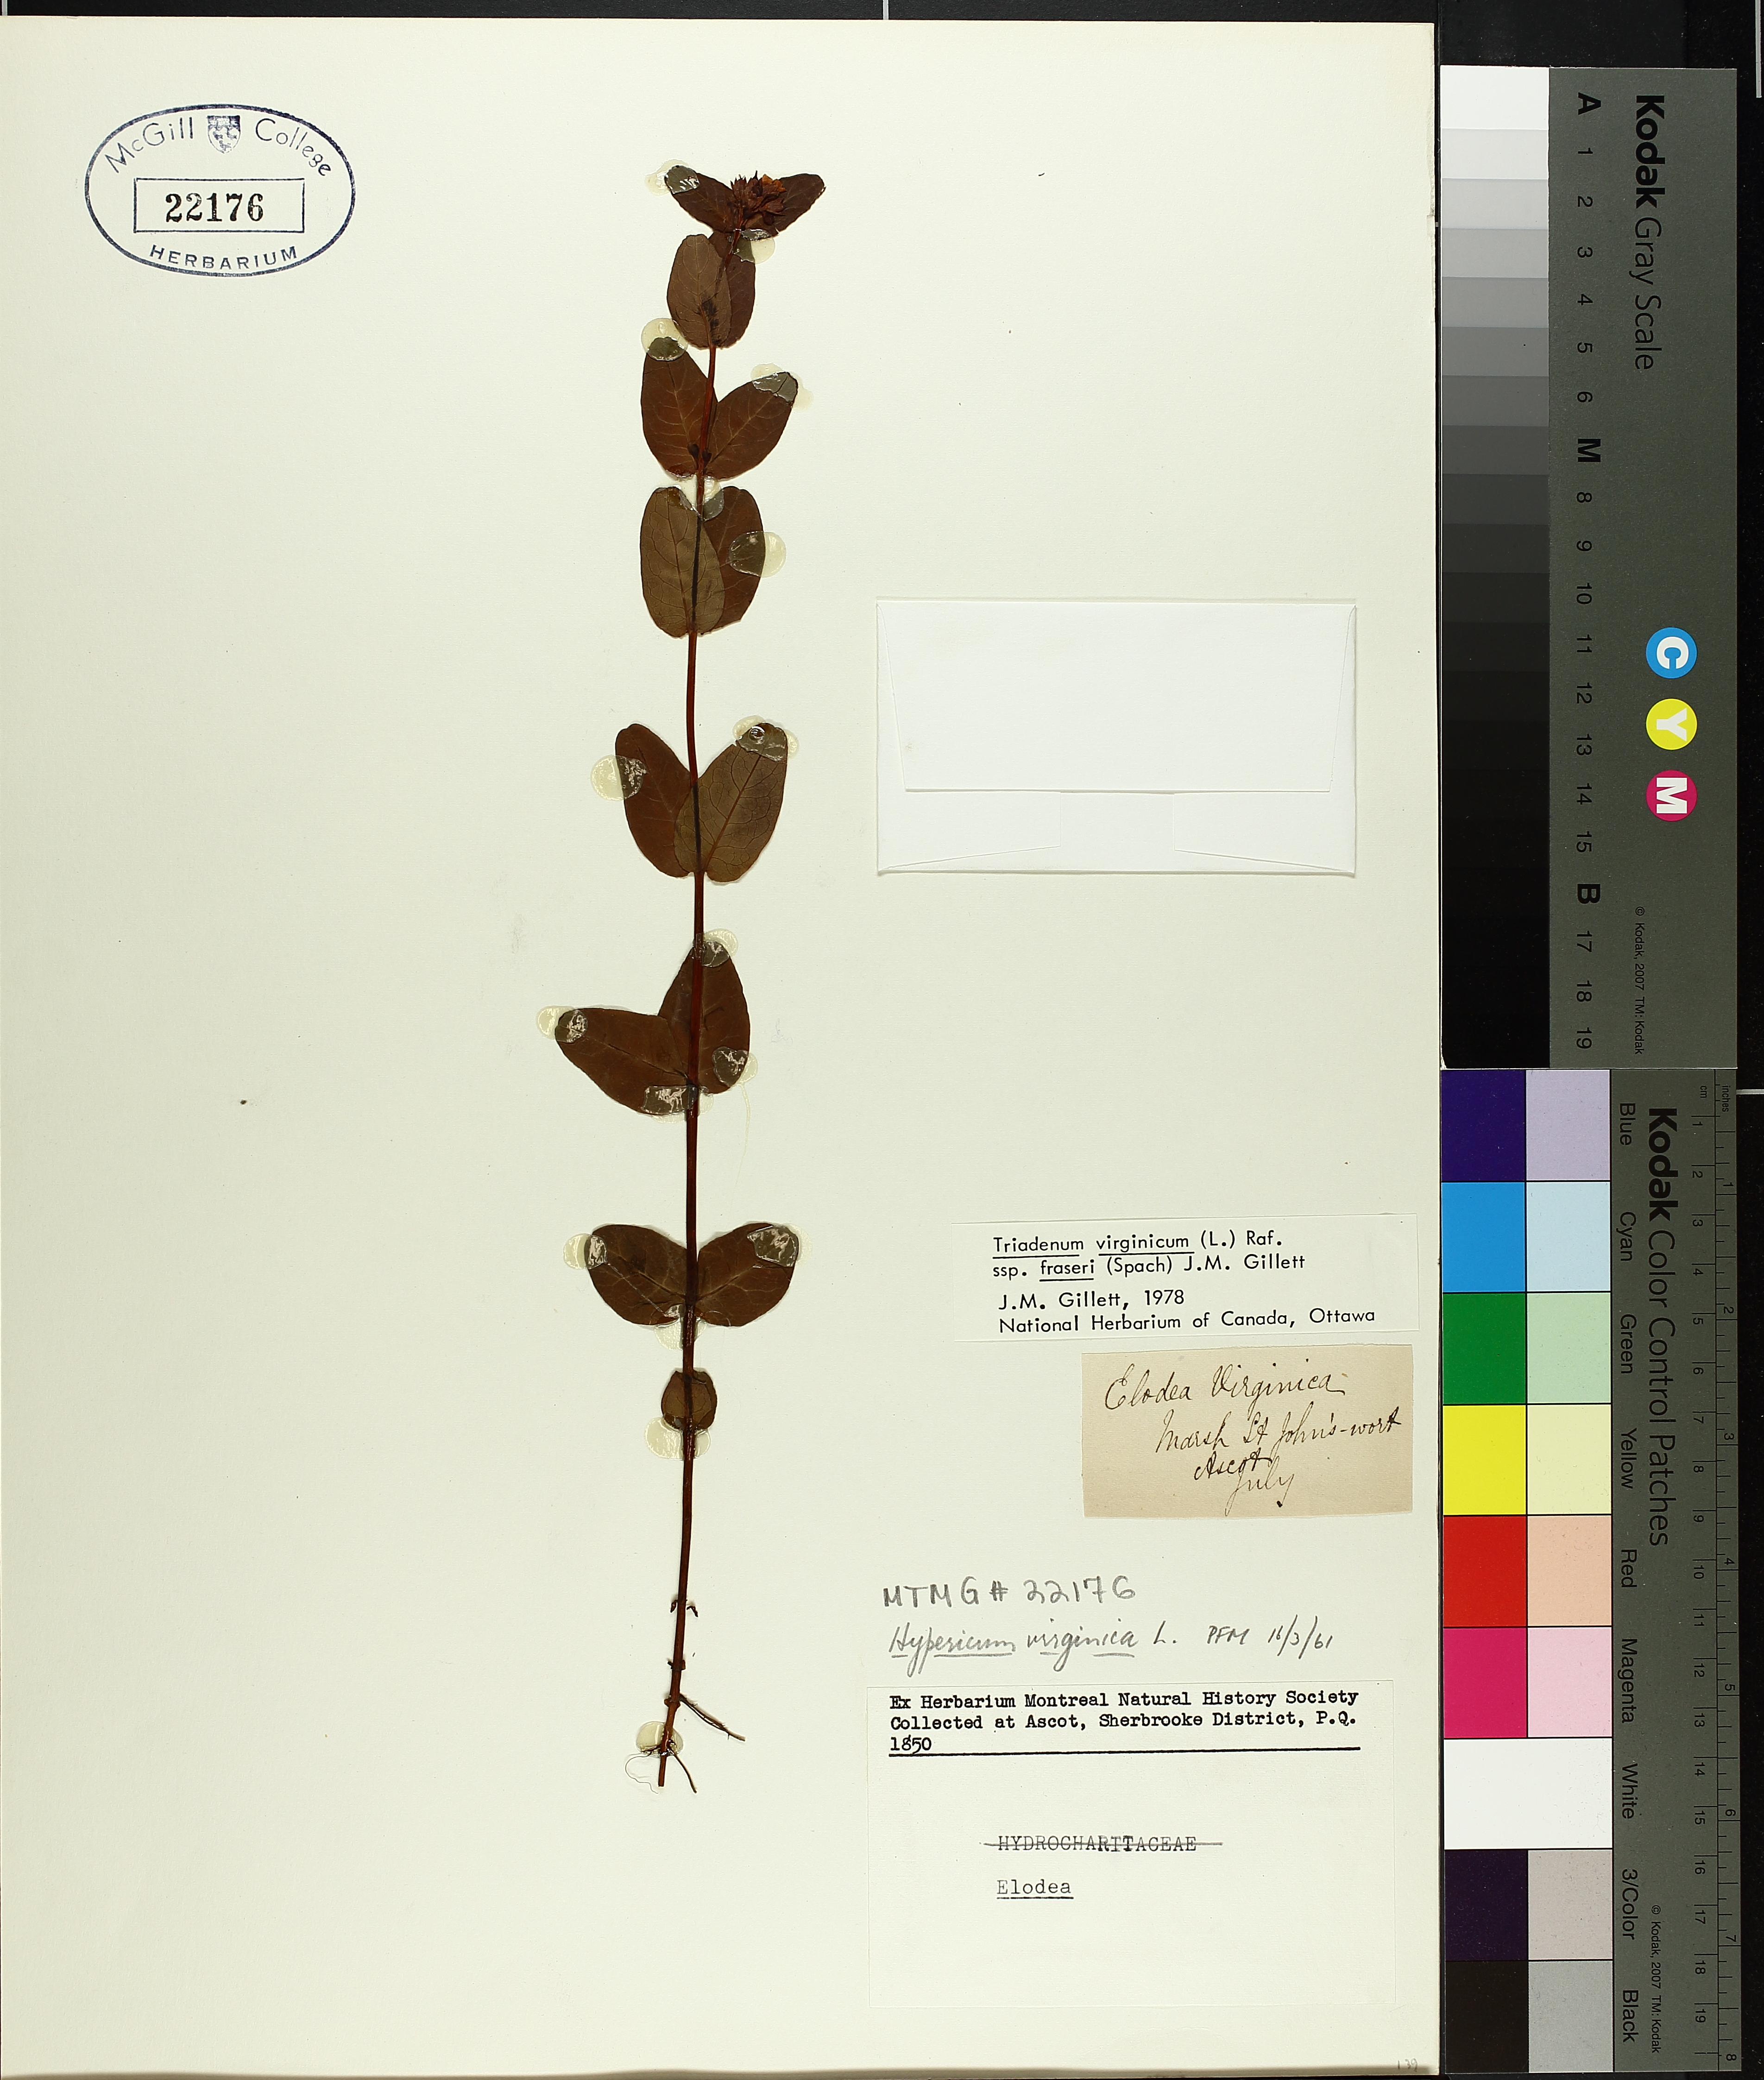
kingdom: Plantae
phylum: Tracheophyta
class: Magnoliopsida
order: Malpighiales
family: Hypericaceae
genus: Triadenum
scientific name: Triadenum fraseri
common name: Fraser's marsh st. johnswort
